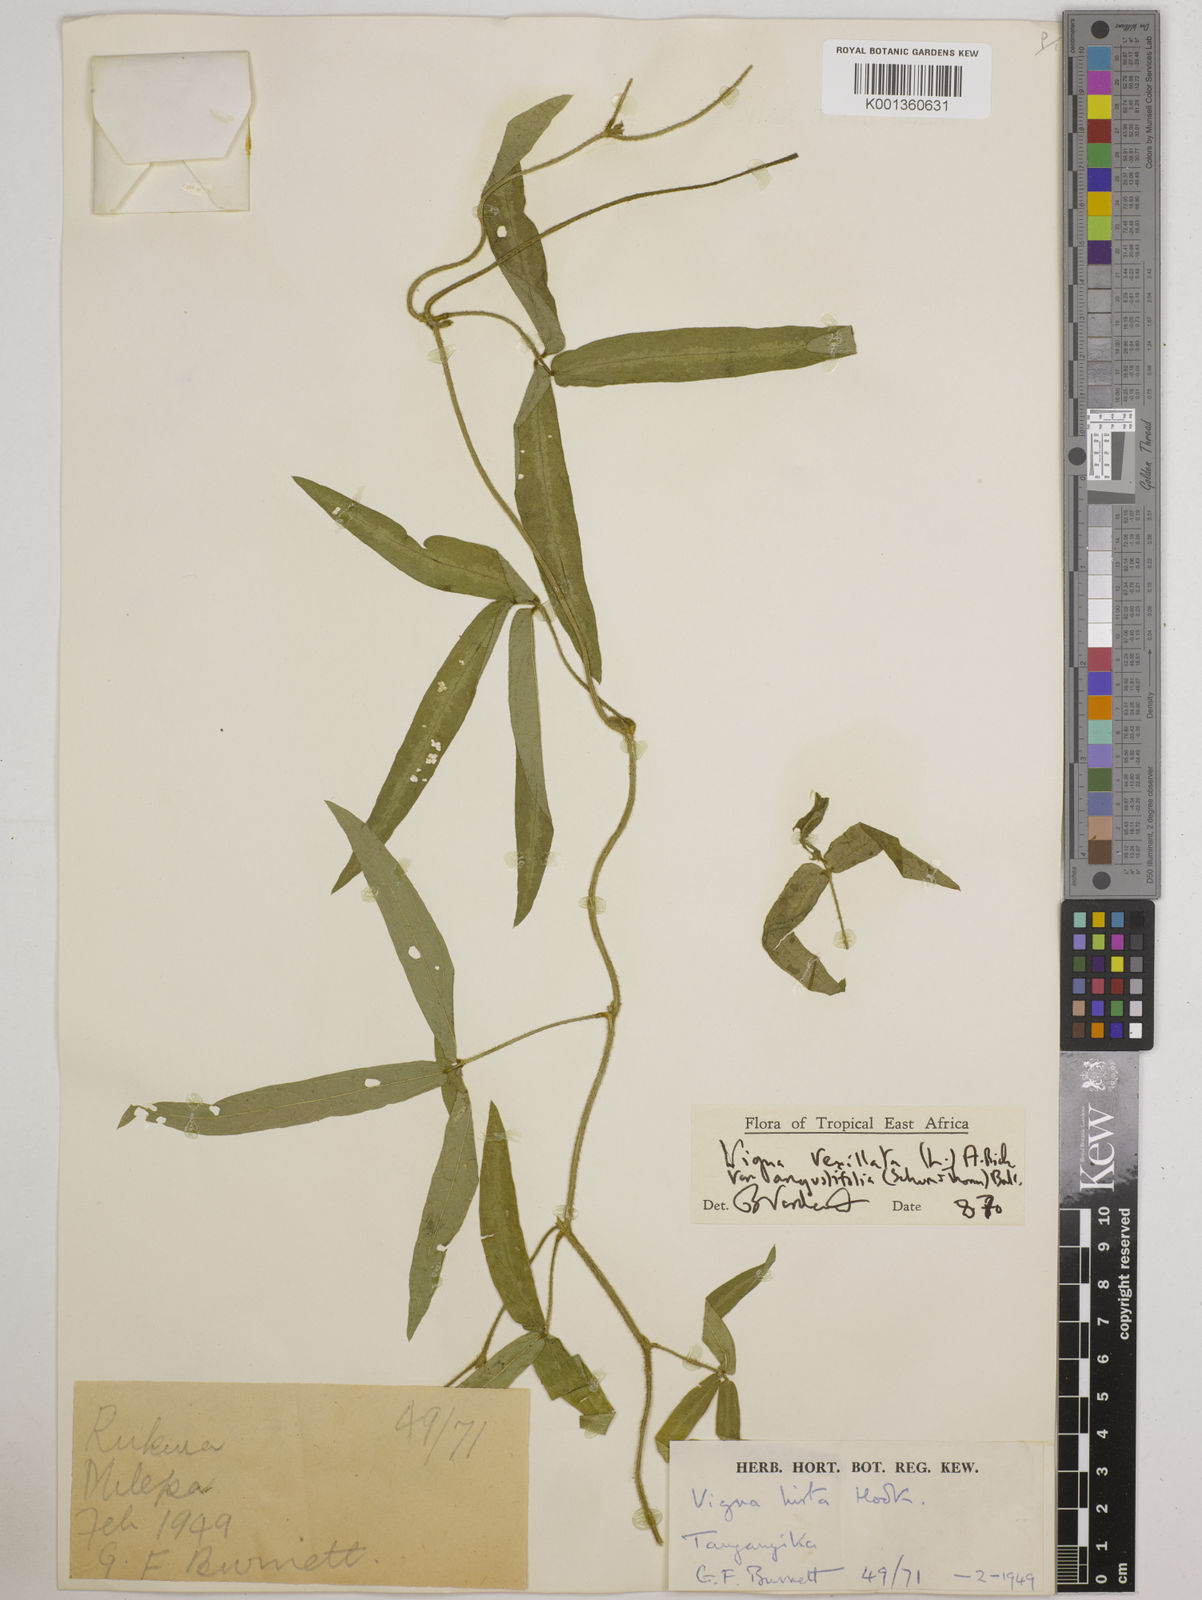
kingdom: Plantae
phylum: Tracheophyta
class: Magnoliopsida
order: Fabales
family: Fabaceae
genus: Vigna
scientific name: Vigna vexillata
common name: Zombi pea
